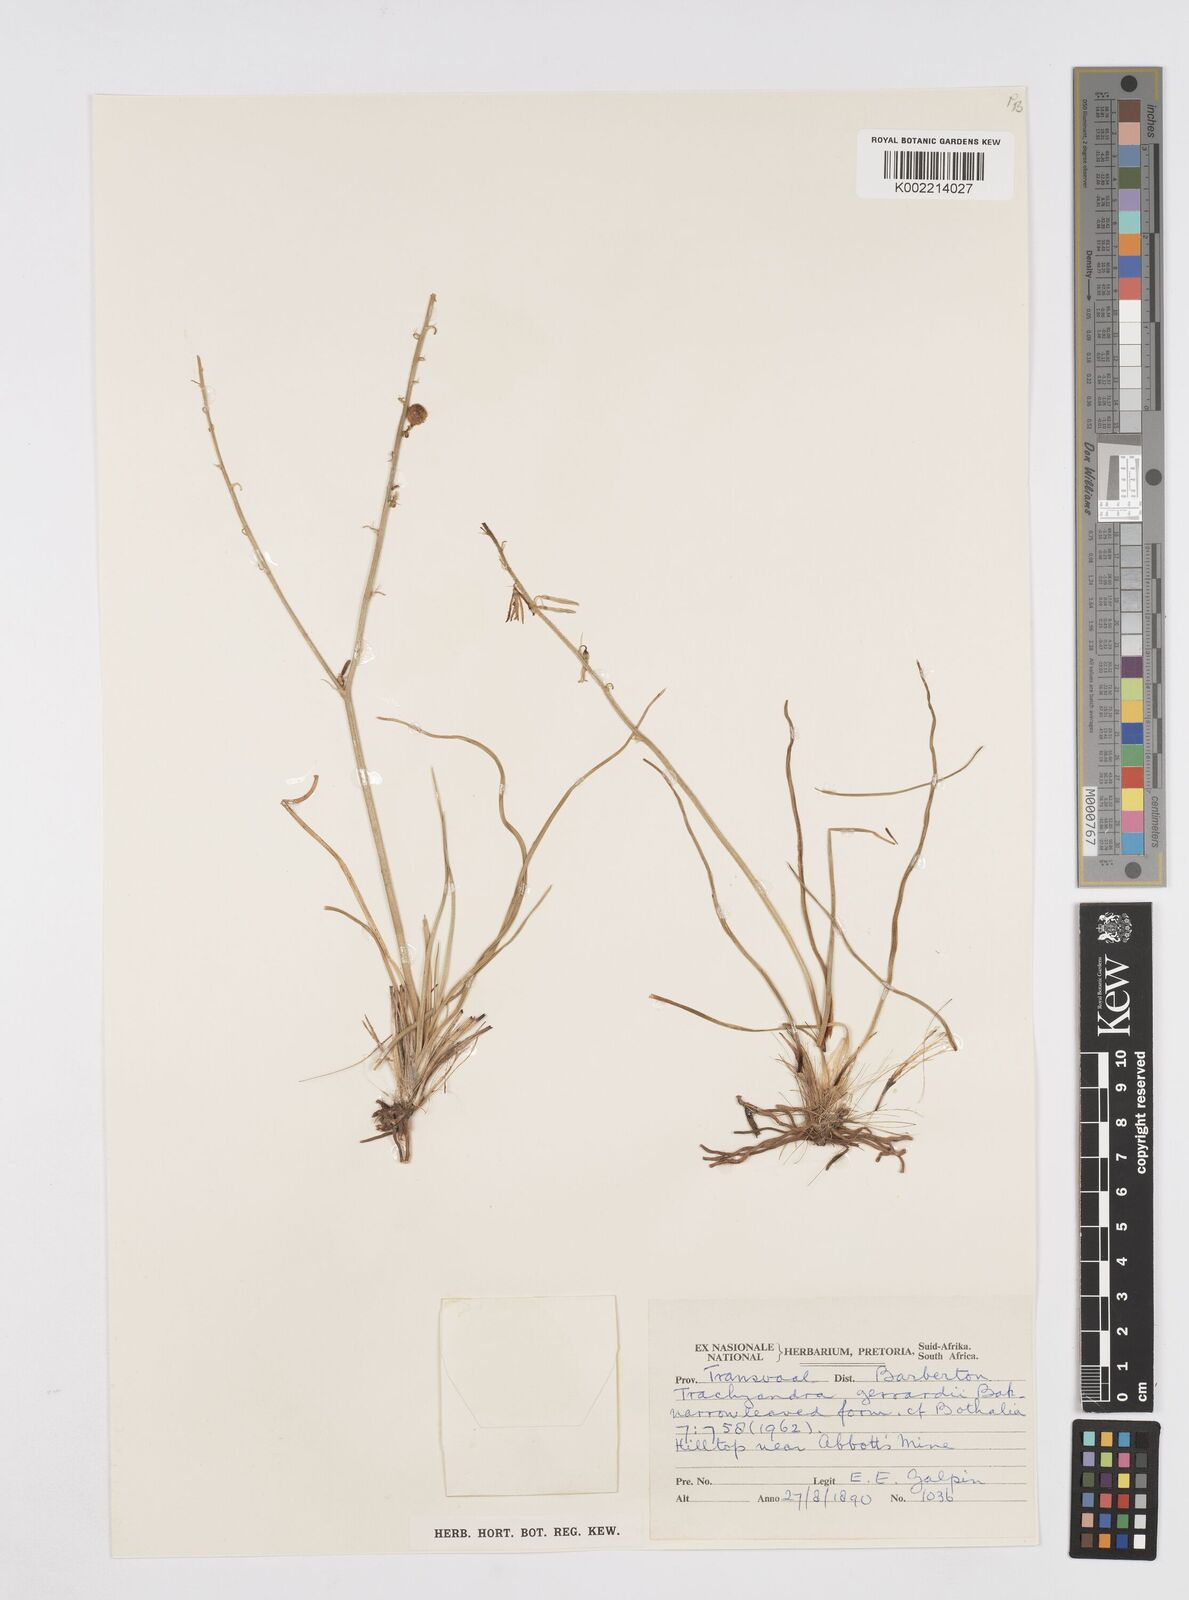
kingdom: Plantae
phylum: Tracheophyta
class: Liliopsida
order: Asparagales
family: Asphodelaceae
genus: Trachyandra
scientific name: Trachyandra gerrardii
